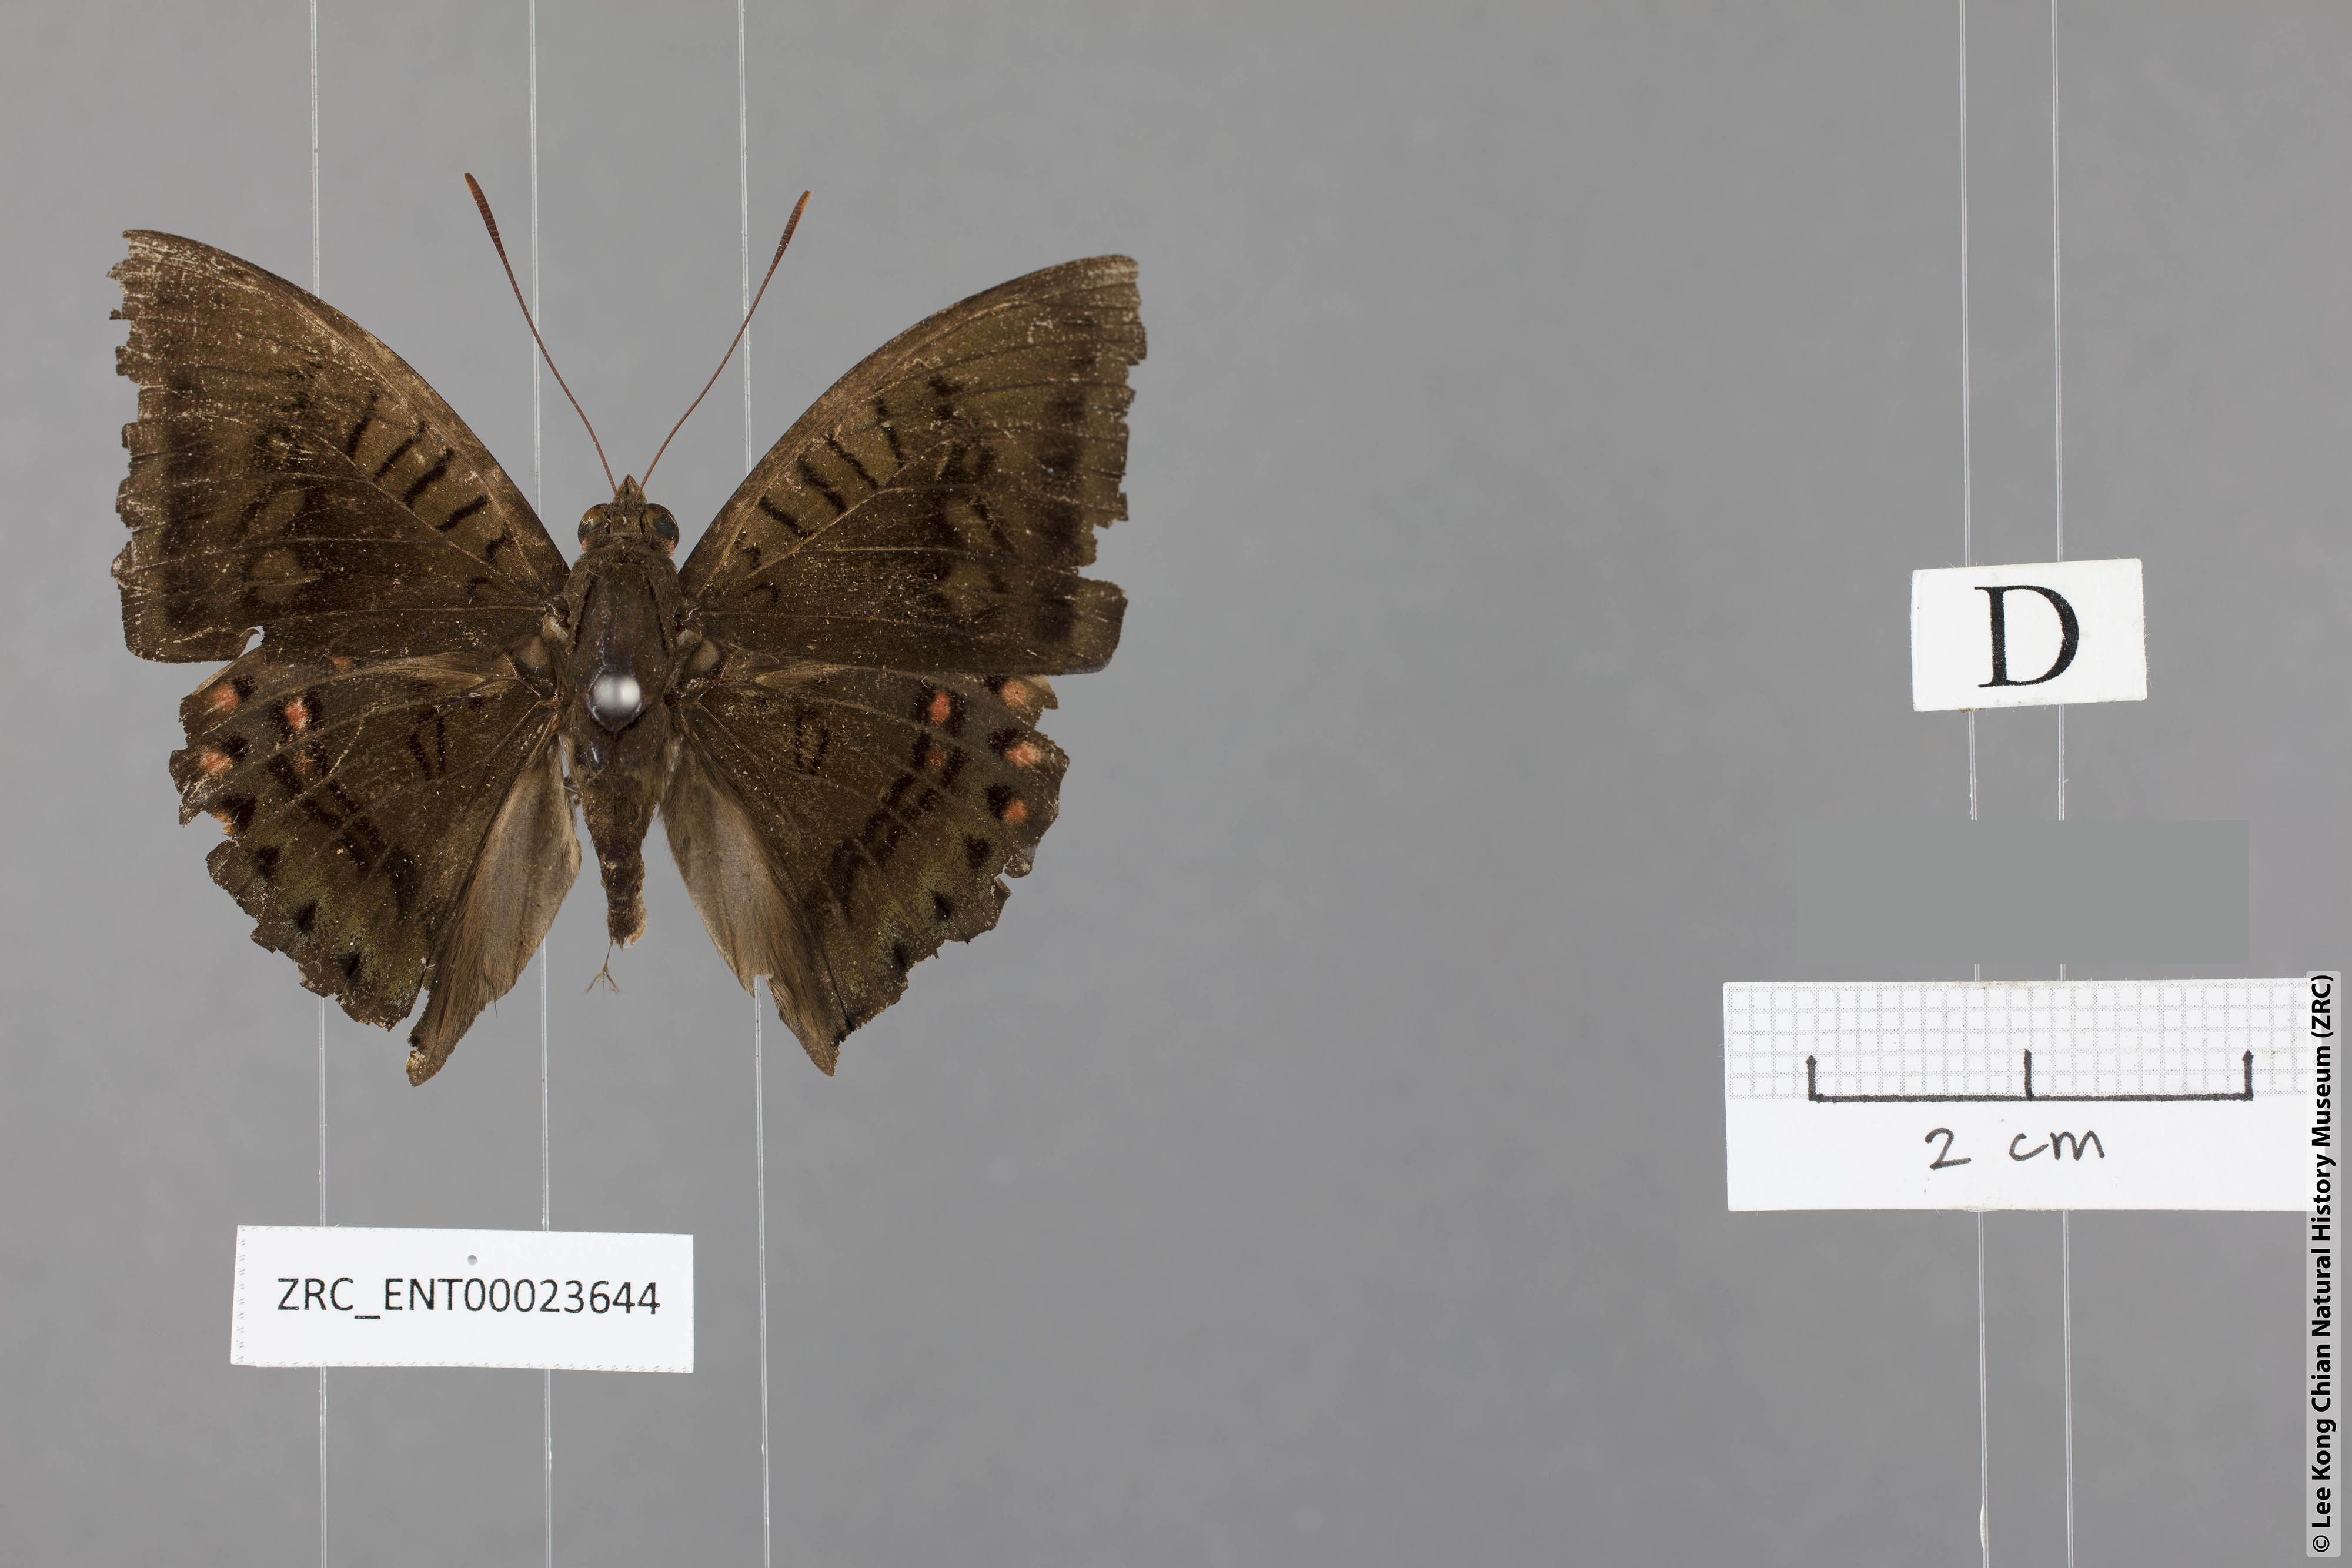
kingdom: Animalia
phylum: Arthropoda
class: Insecta
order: Lepidoptera
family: Nymphalidae
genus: Euthalia
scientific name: Euthalia djata
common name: Red-spot baron
